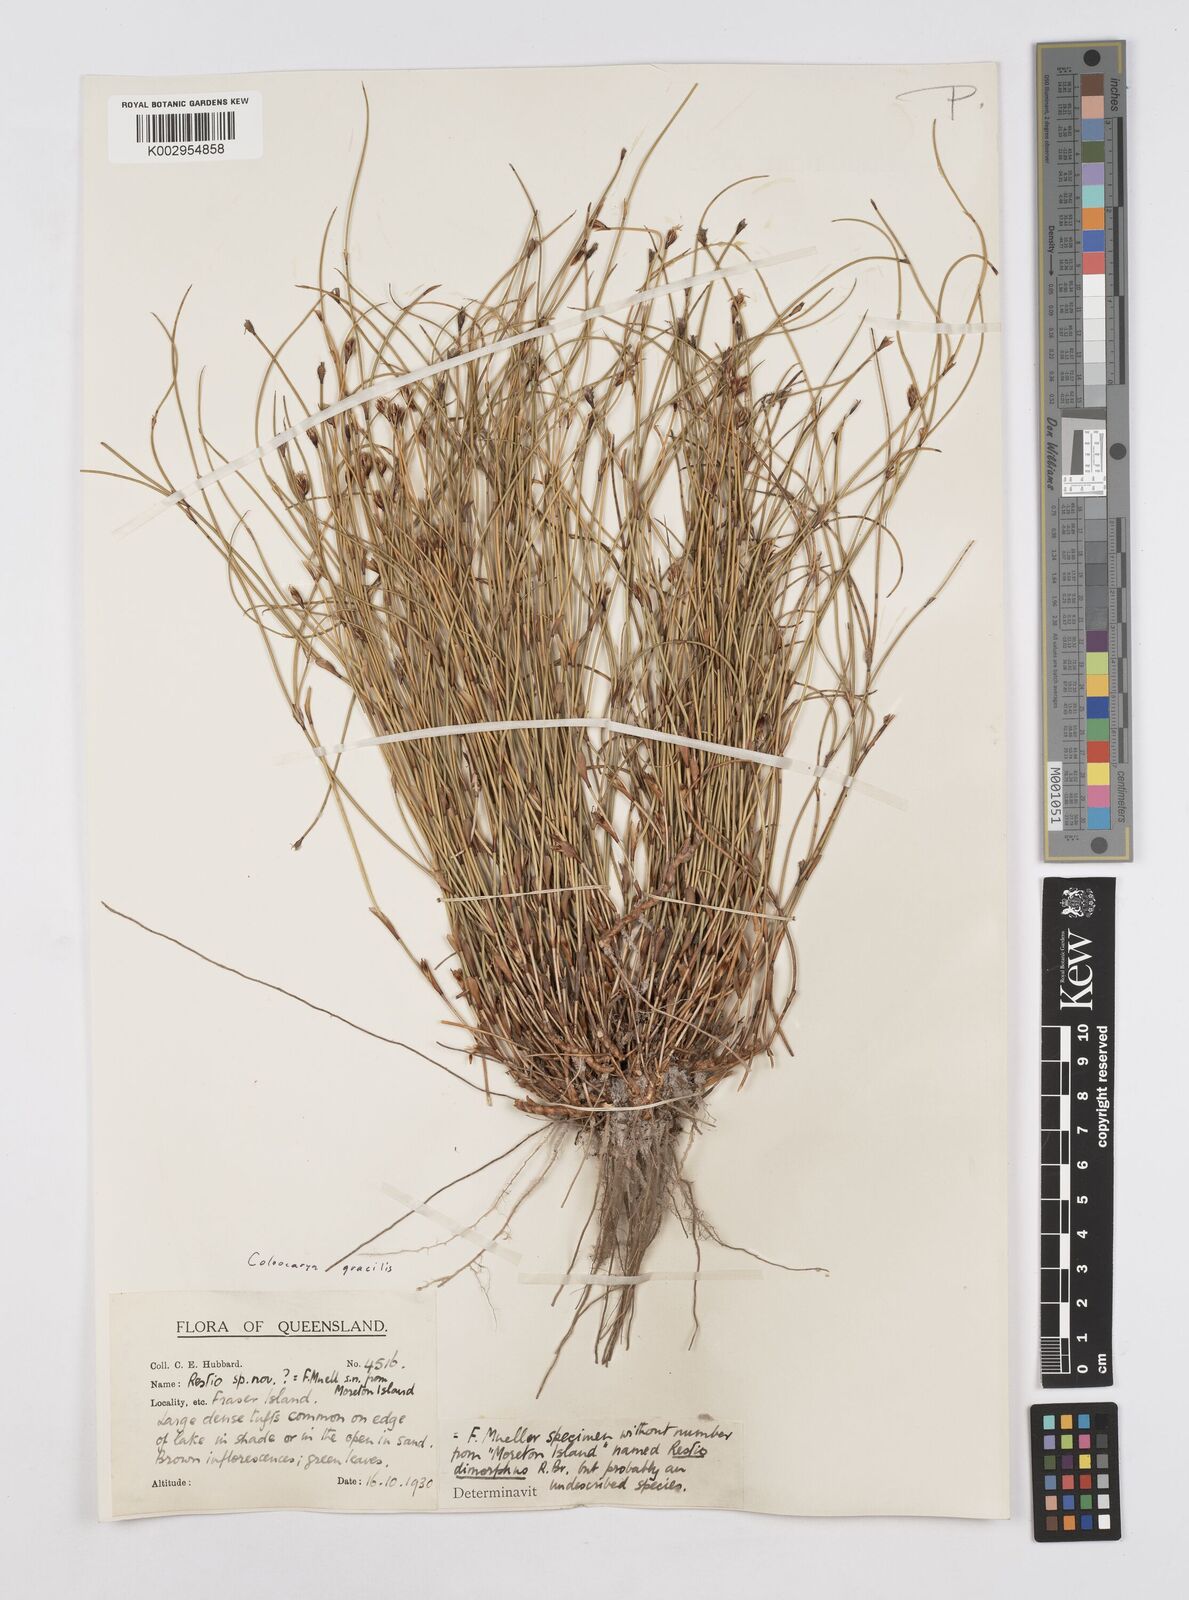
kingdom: Plantae
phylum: Tracheophyta
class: Liliopsida
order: Poales
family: Restionaceae
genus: Coleocarya
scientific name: Coleocarya gracilis
